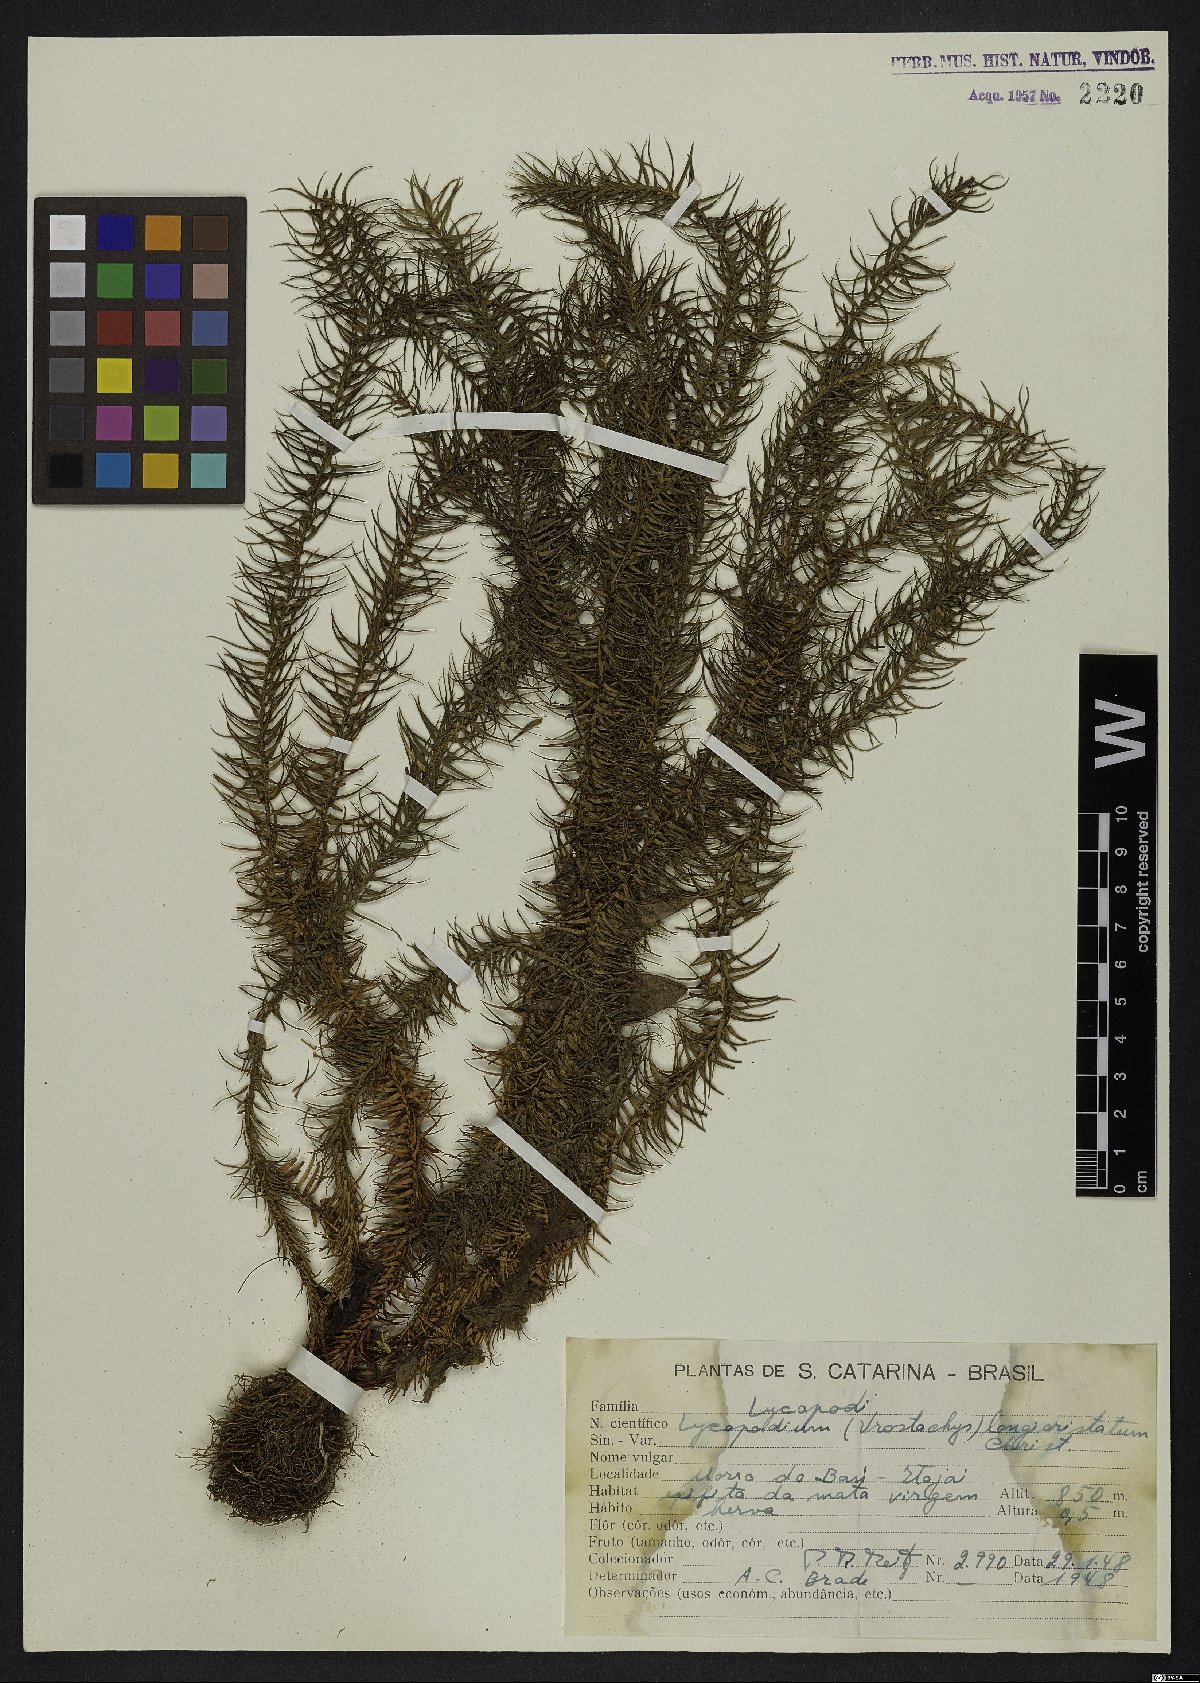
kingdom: Plantae
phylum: Tracheophyta
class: Lycopodiopsida
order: Lycopodiales
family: Lycopodiaceae
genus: Phlegmariurus
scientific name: Phlegmariurus heterocarpos
